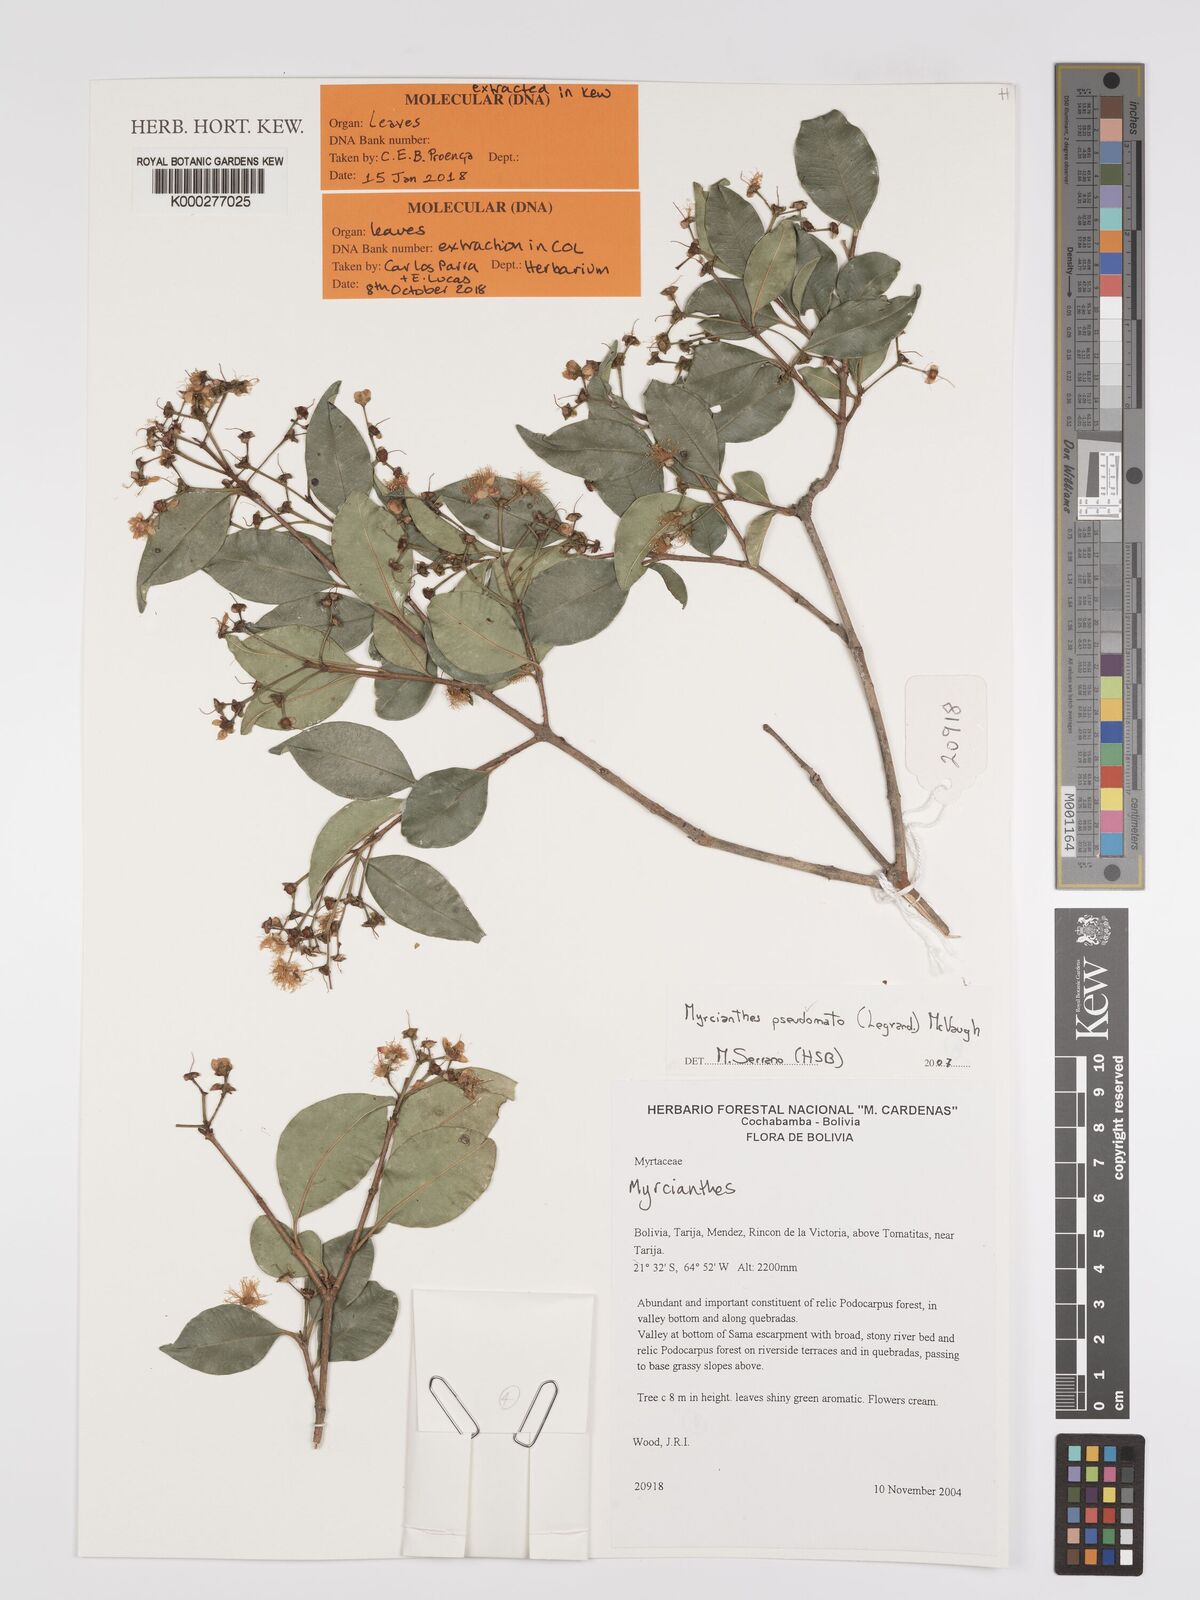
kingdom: Plantae
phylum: Tracheophyta
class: Magnoliopsida
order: Myrtales
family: Myrtaceae
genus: Myrcianthes
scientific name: Myrcianthes pseudomato
